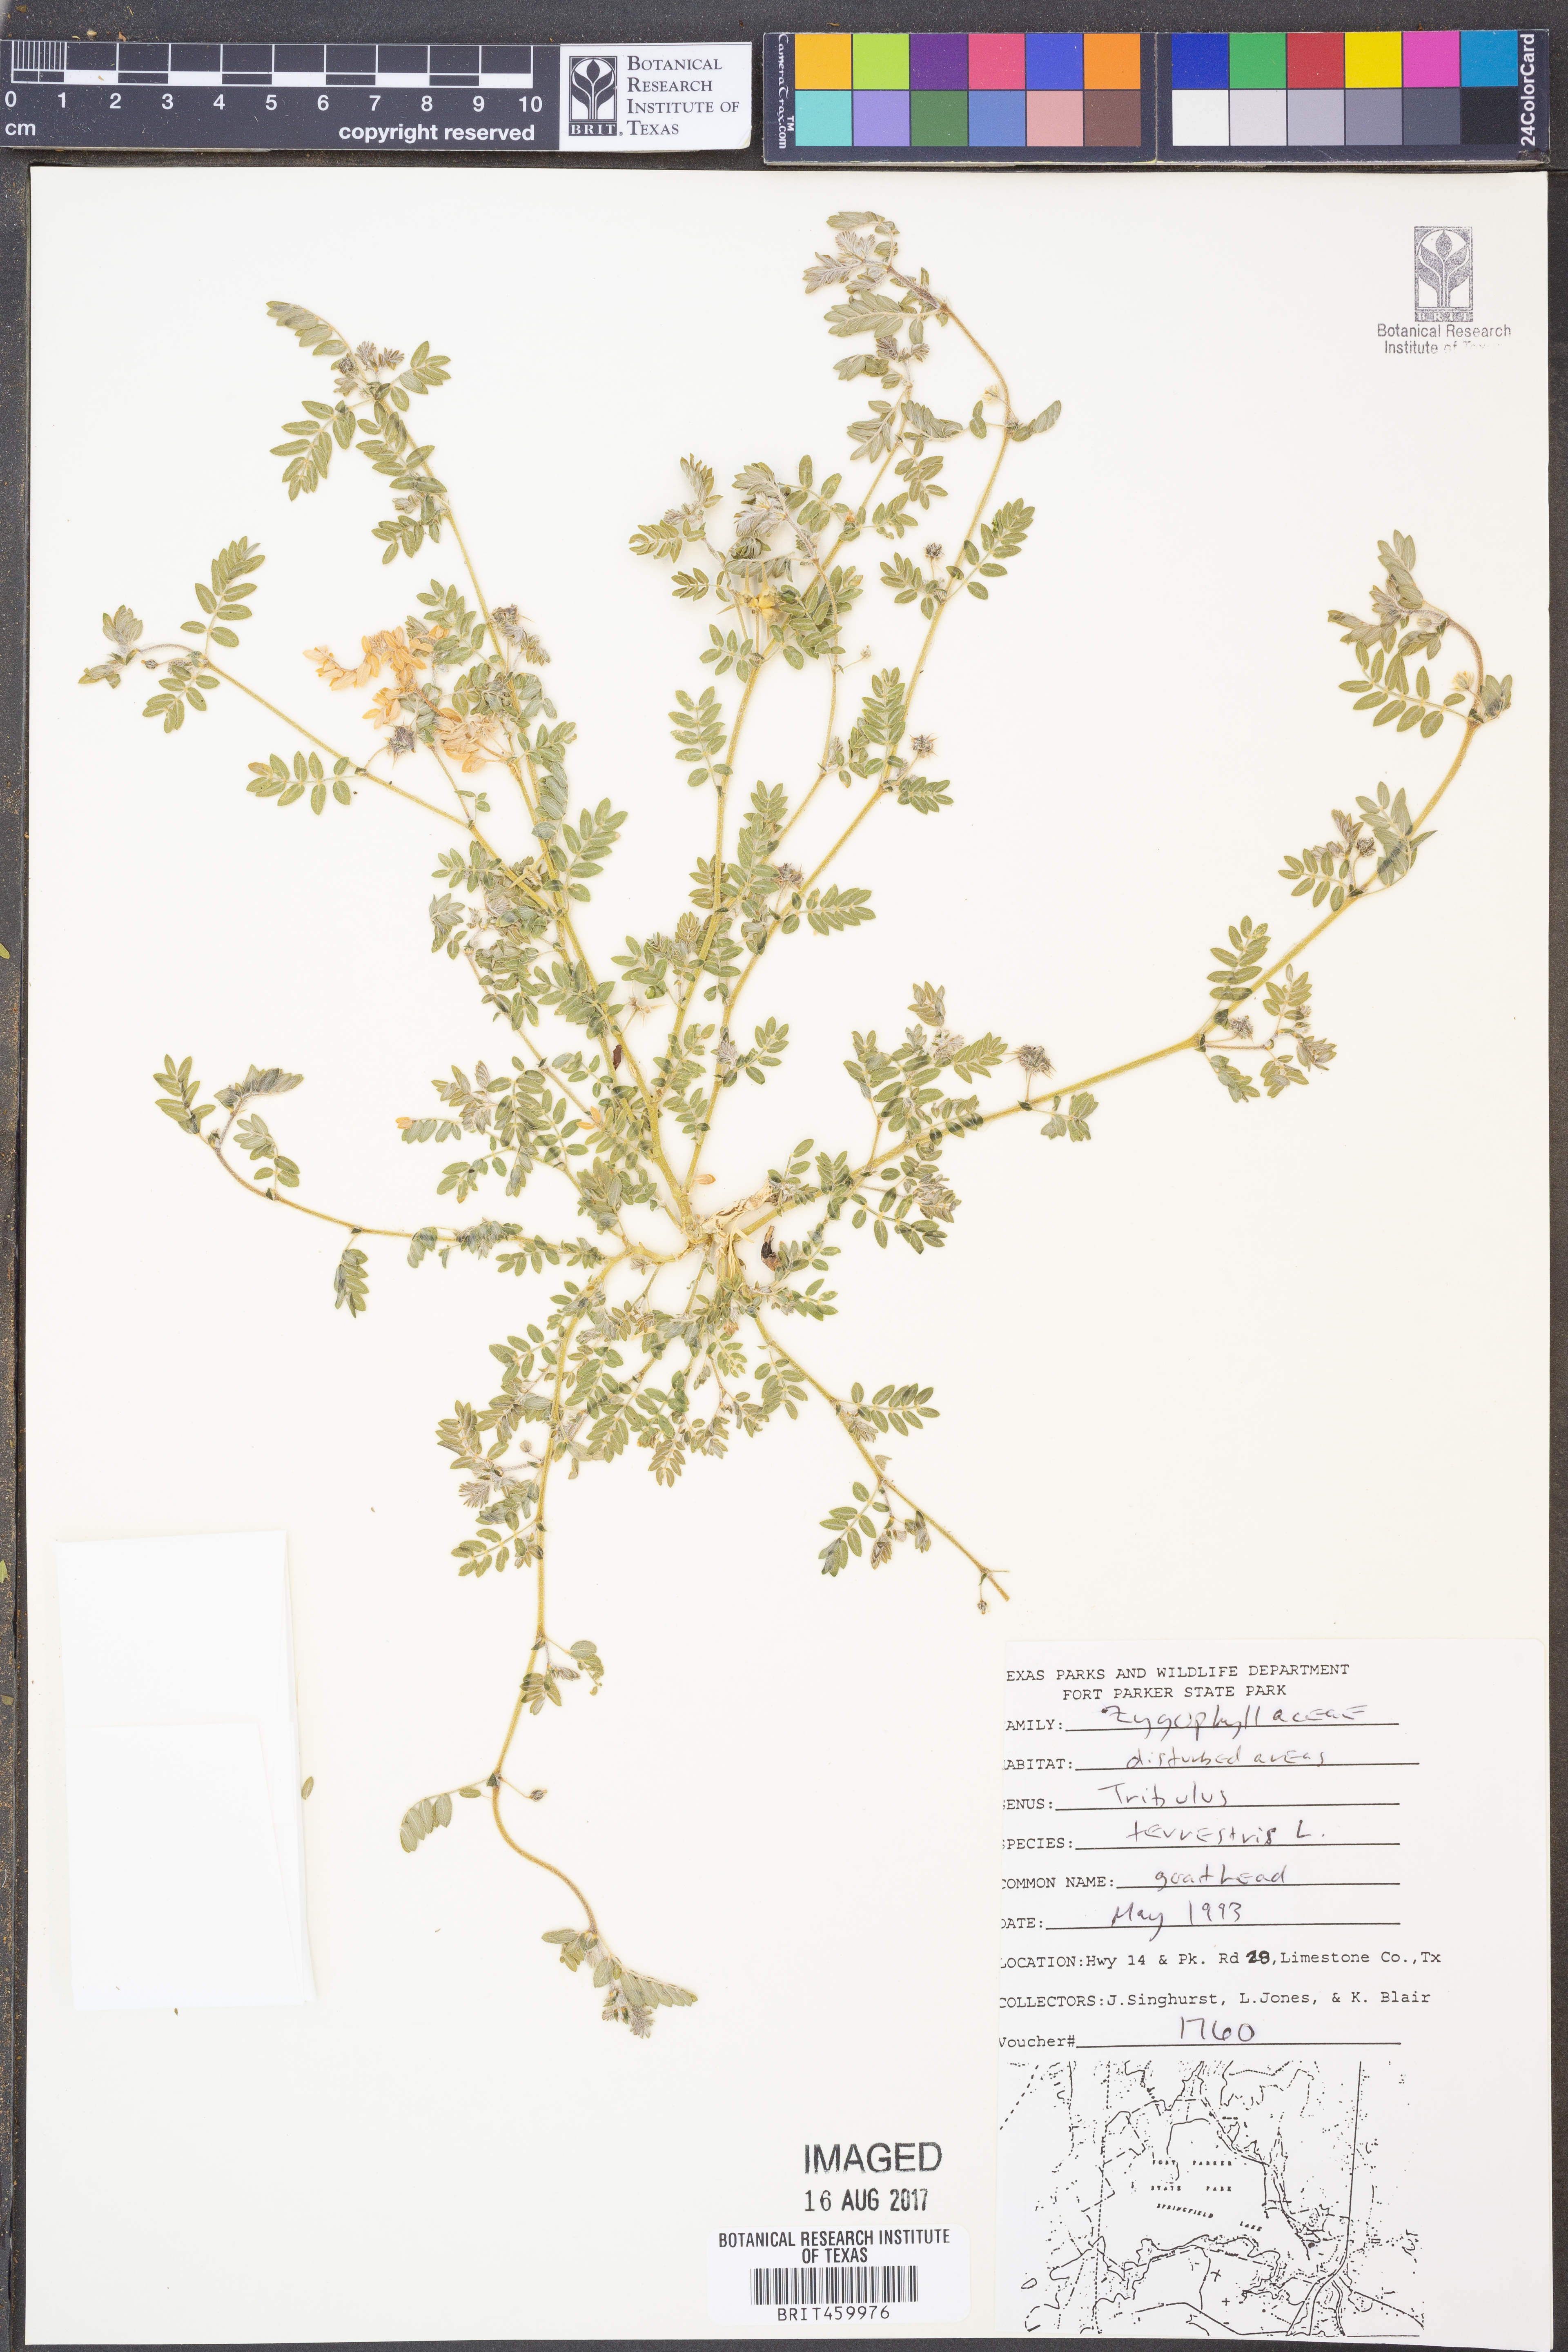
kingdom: Plantae
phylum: Tracheophyta
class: Magnoliopsida
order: Zygophyllales
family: Zygophyllaceae
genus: Tribulus
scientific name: Tribulus terrestris
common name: Puncturevine
